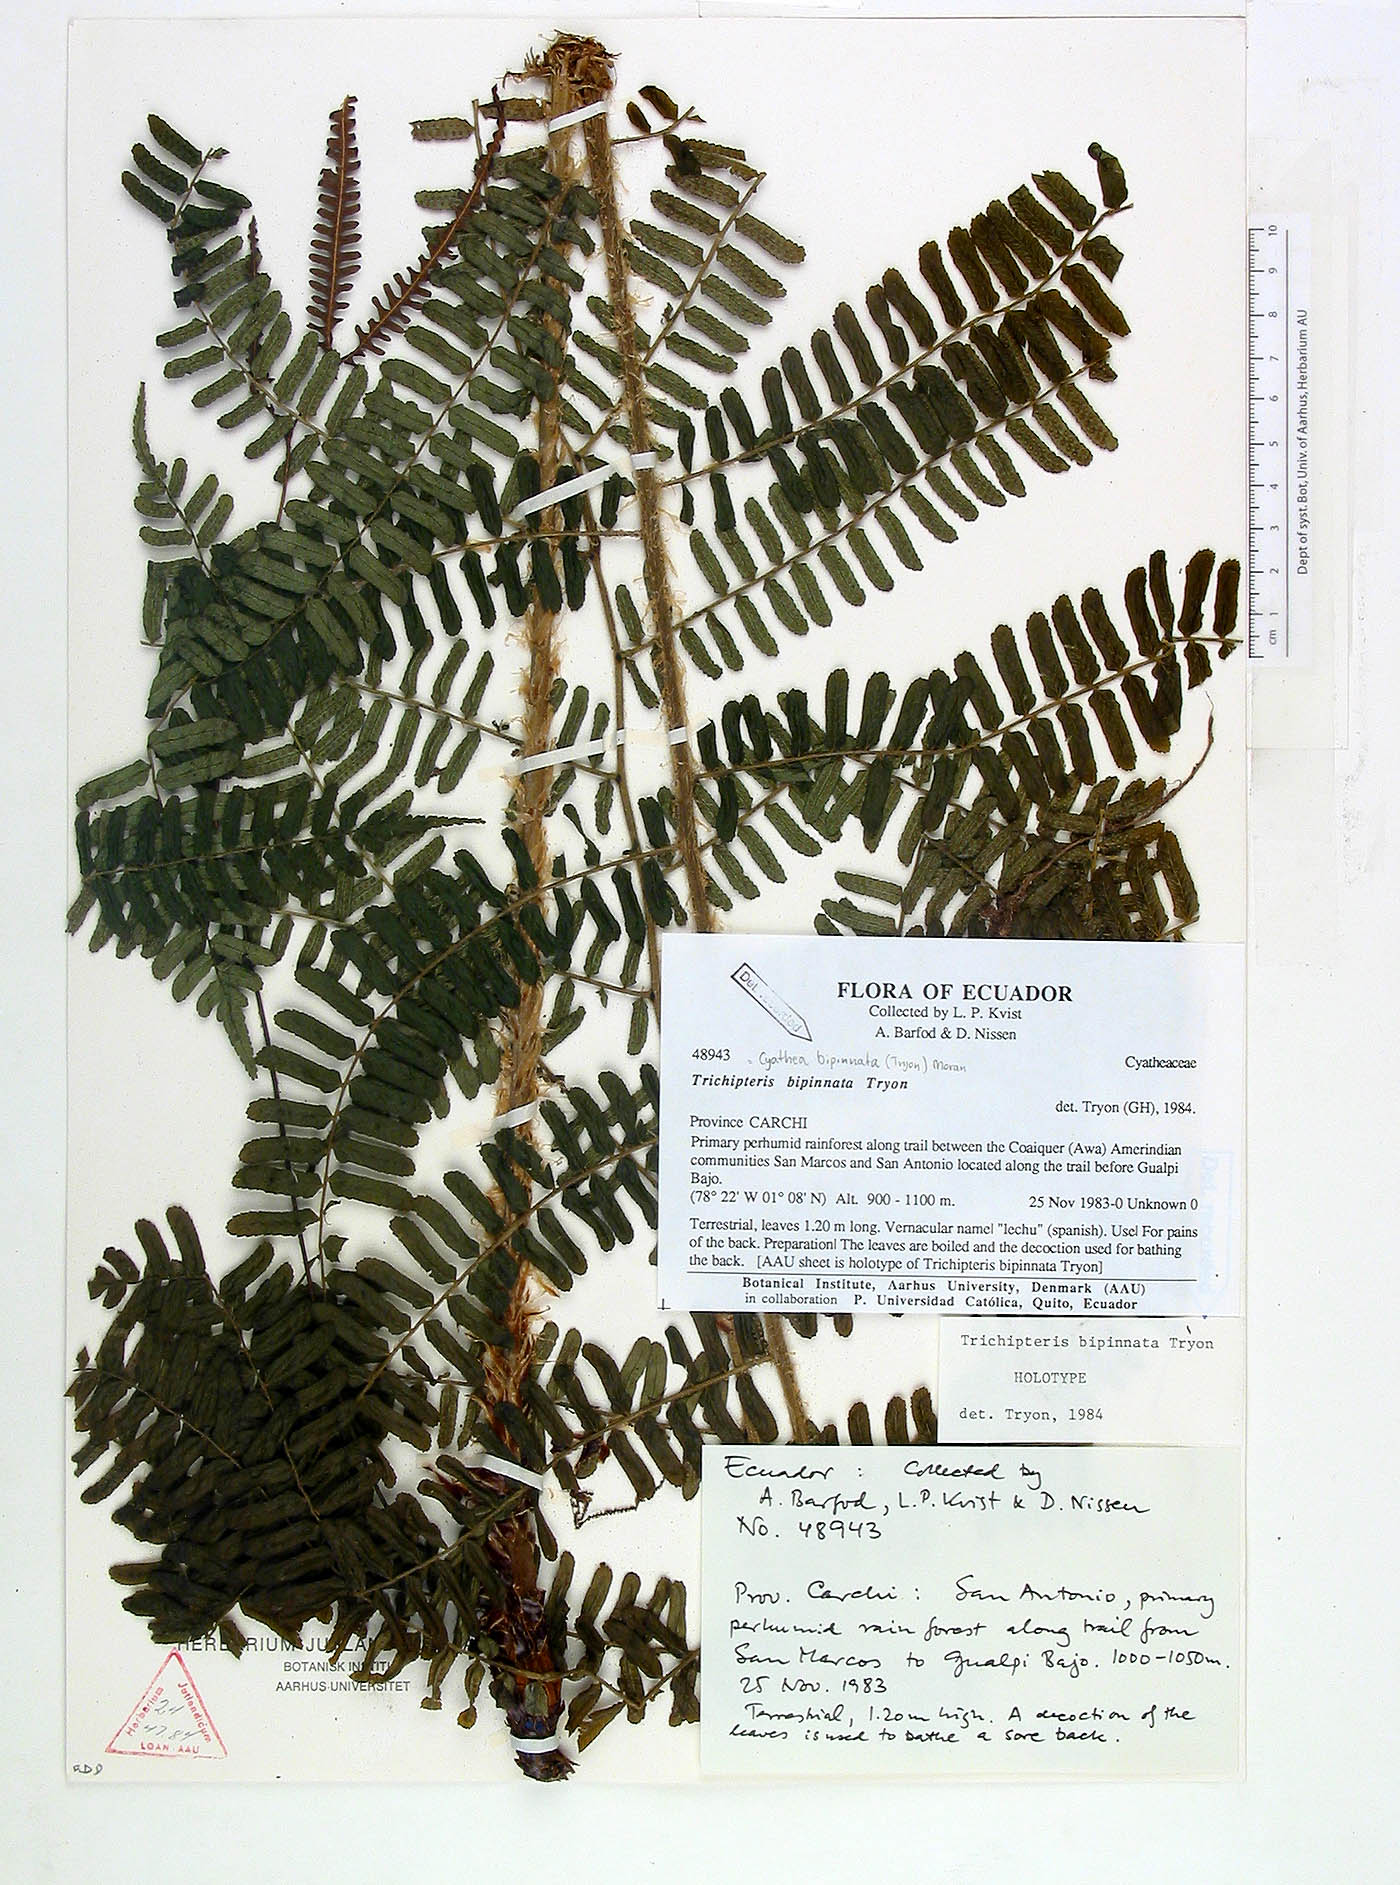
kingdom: Plantae
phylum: Tracheophyta
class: Polypodiopsida
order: Cyatheales
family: Cyatheaceae
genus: Cyathea
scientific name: Cyathea bipinnata
